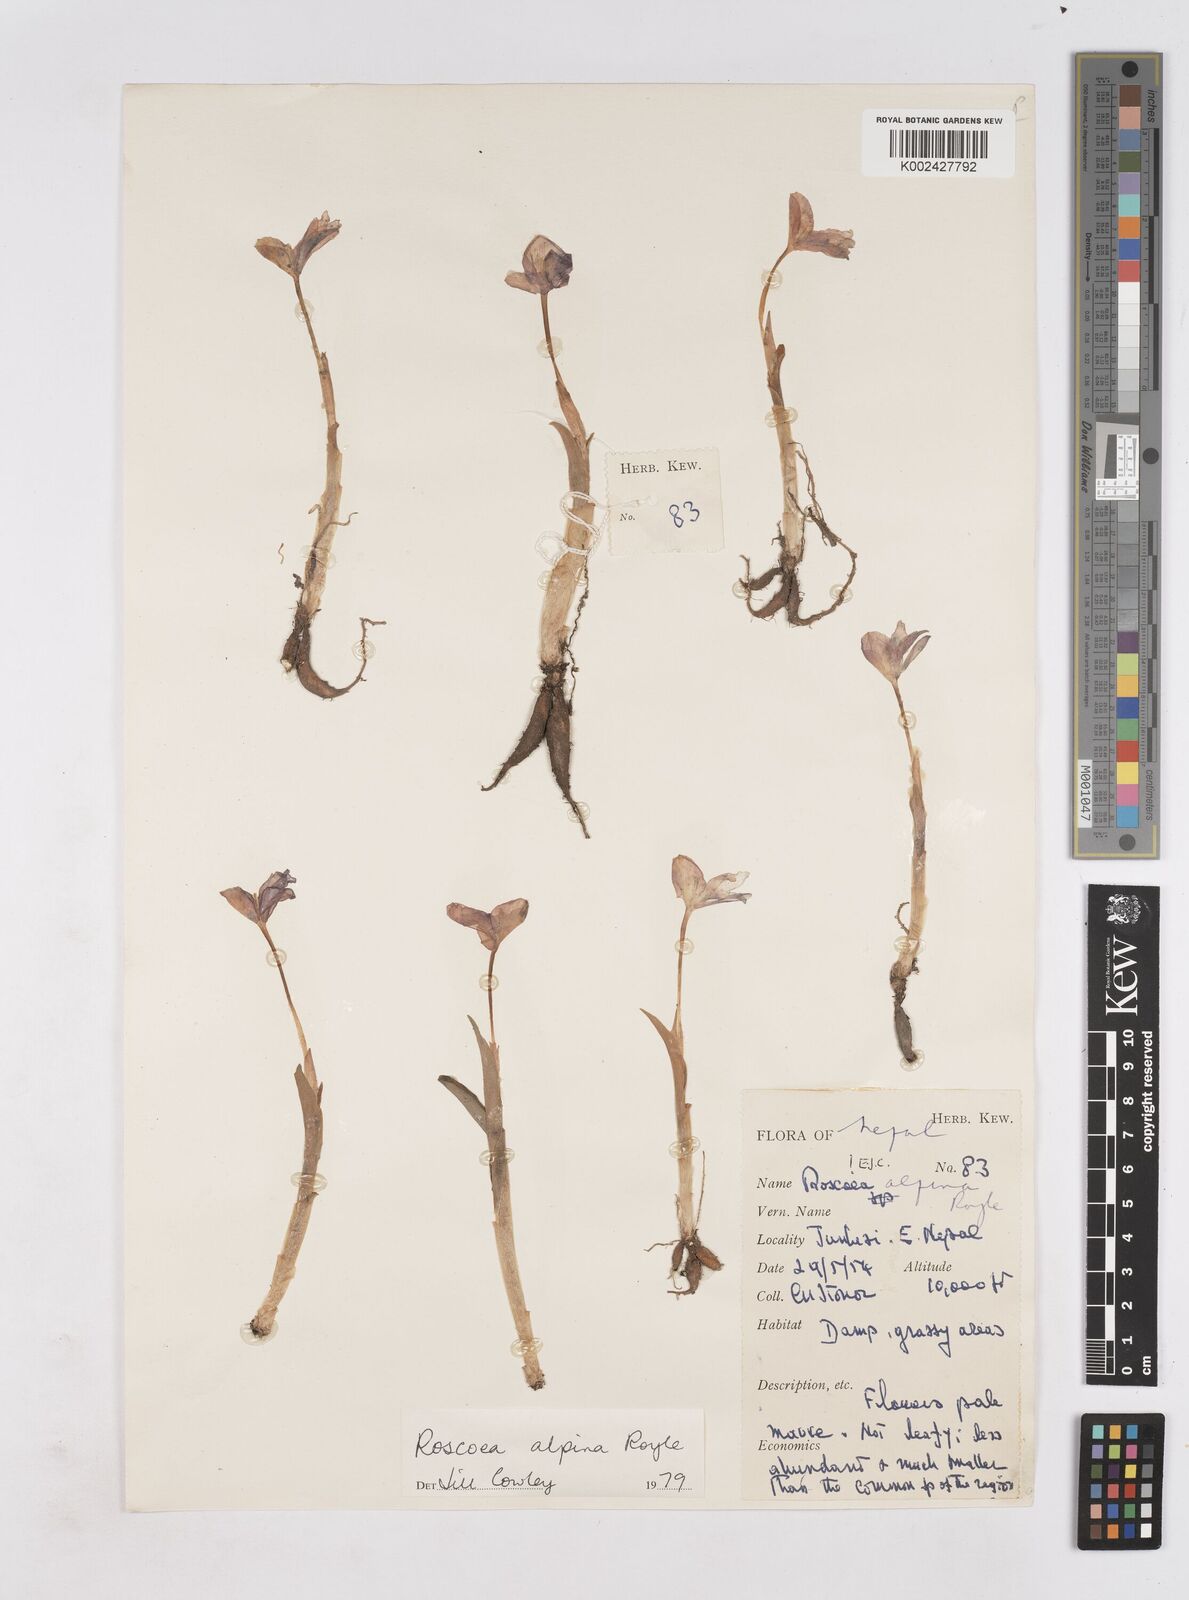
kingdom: Plantae
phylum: Tracheophyta
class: Liliopsida
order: Zingiberales
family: Zingiberaceae
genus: Roscoea
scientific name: Roscoea alpina
